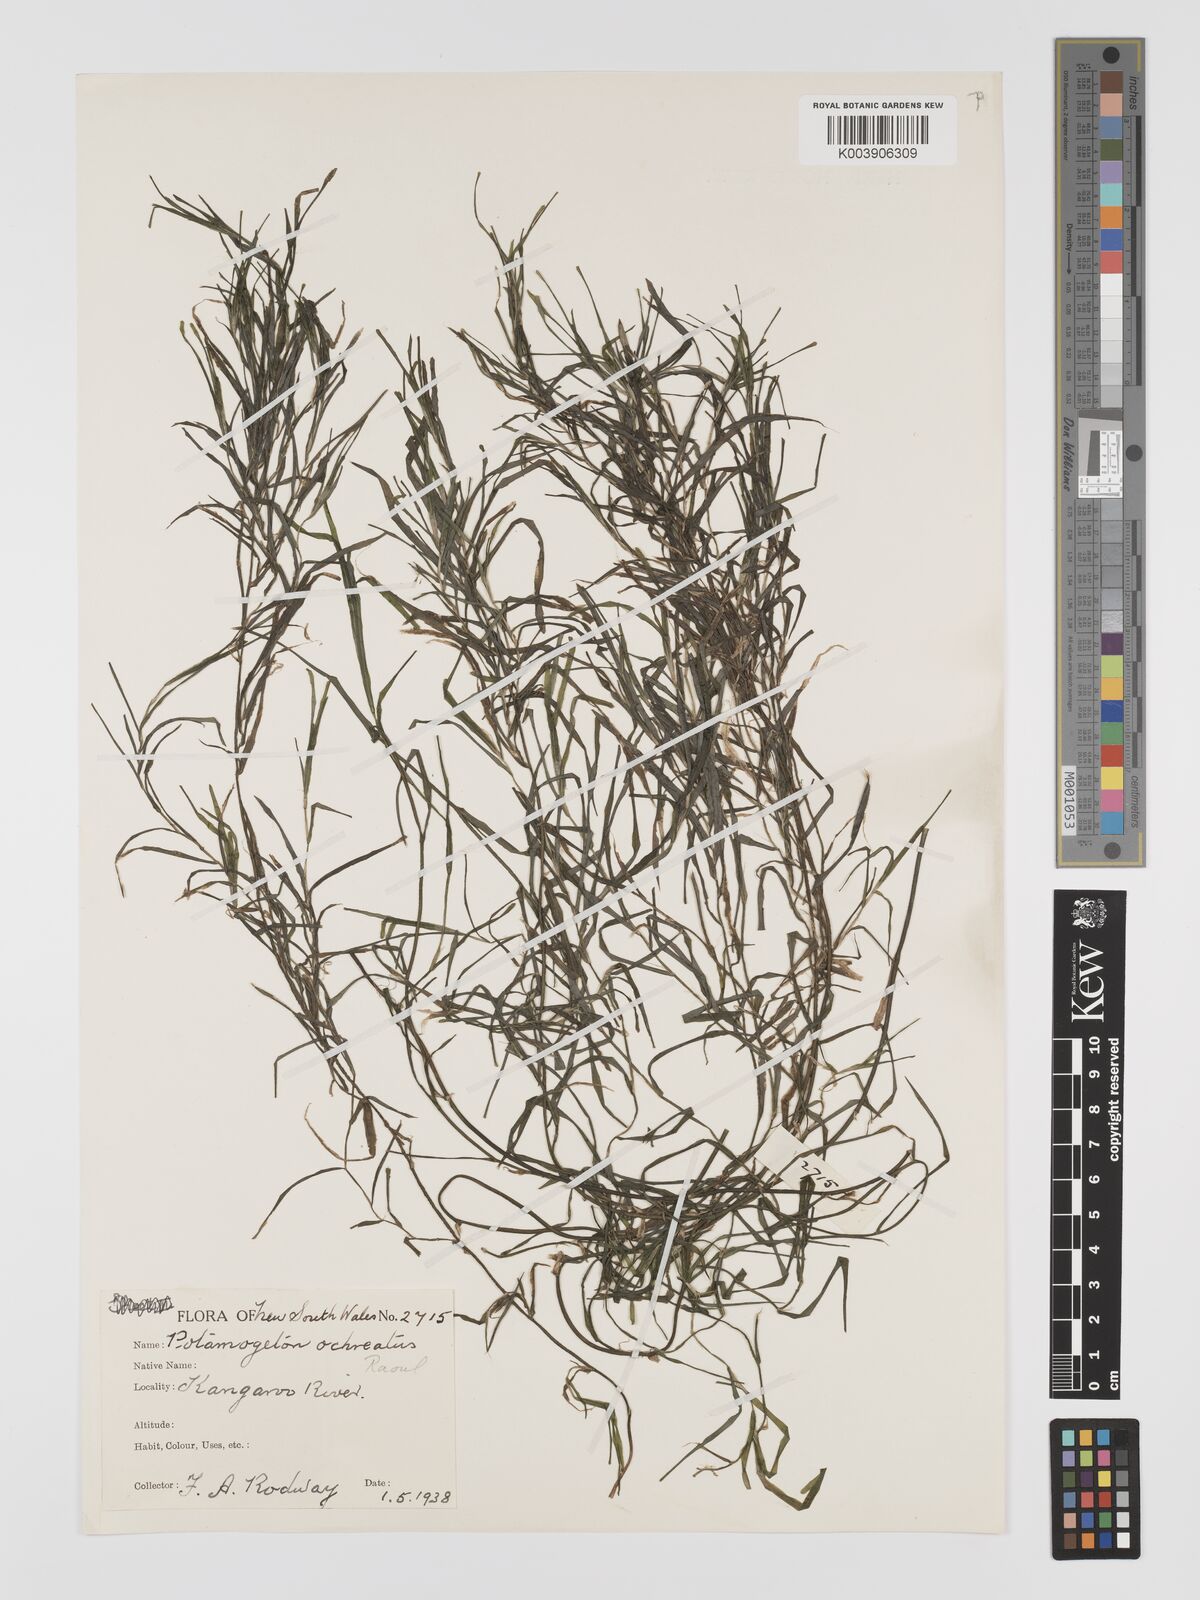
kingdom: Plantae
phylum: Tracheophyta
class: Liliopsida
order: Alismatales
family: Potamogetonaceae
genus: Potamogeton
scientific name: Potamogeton ochreatus
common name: Blunt pondweed
